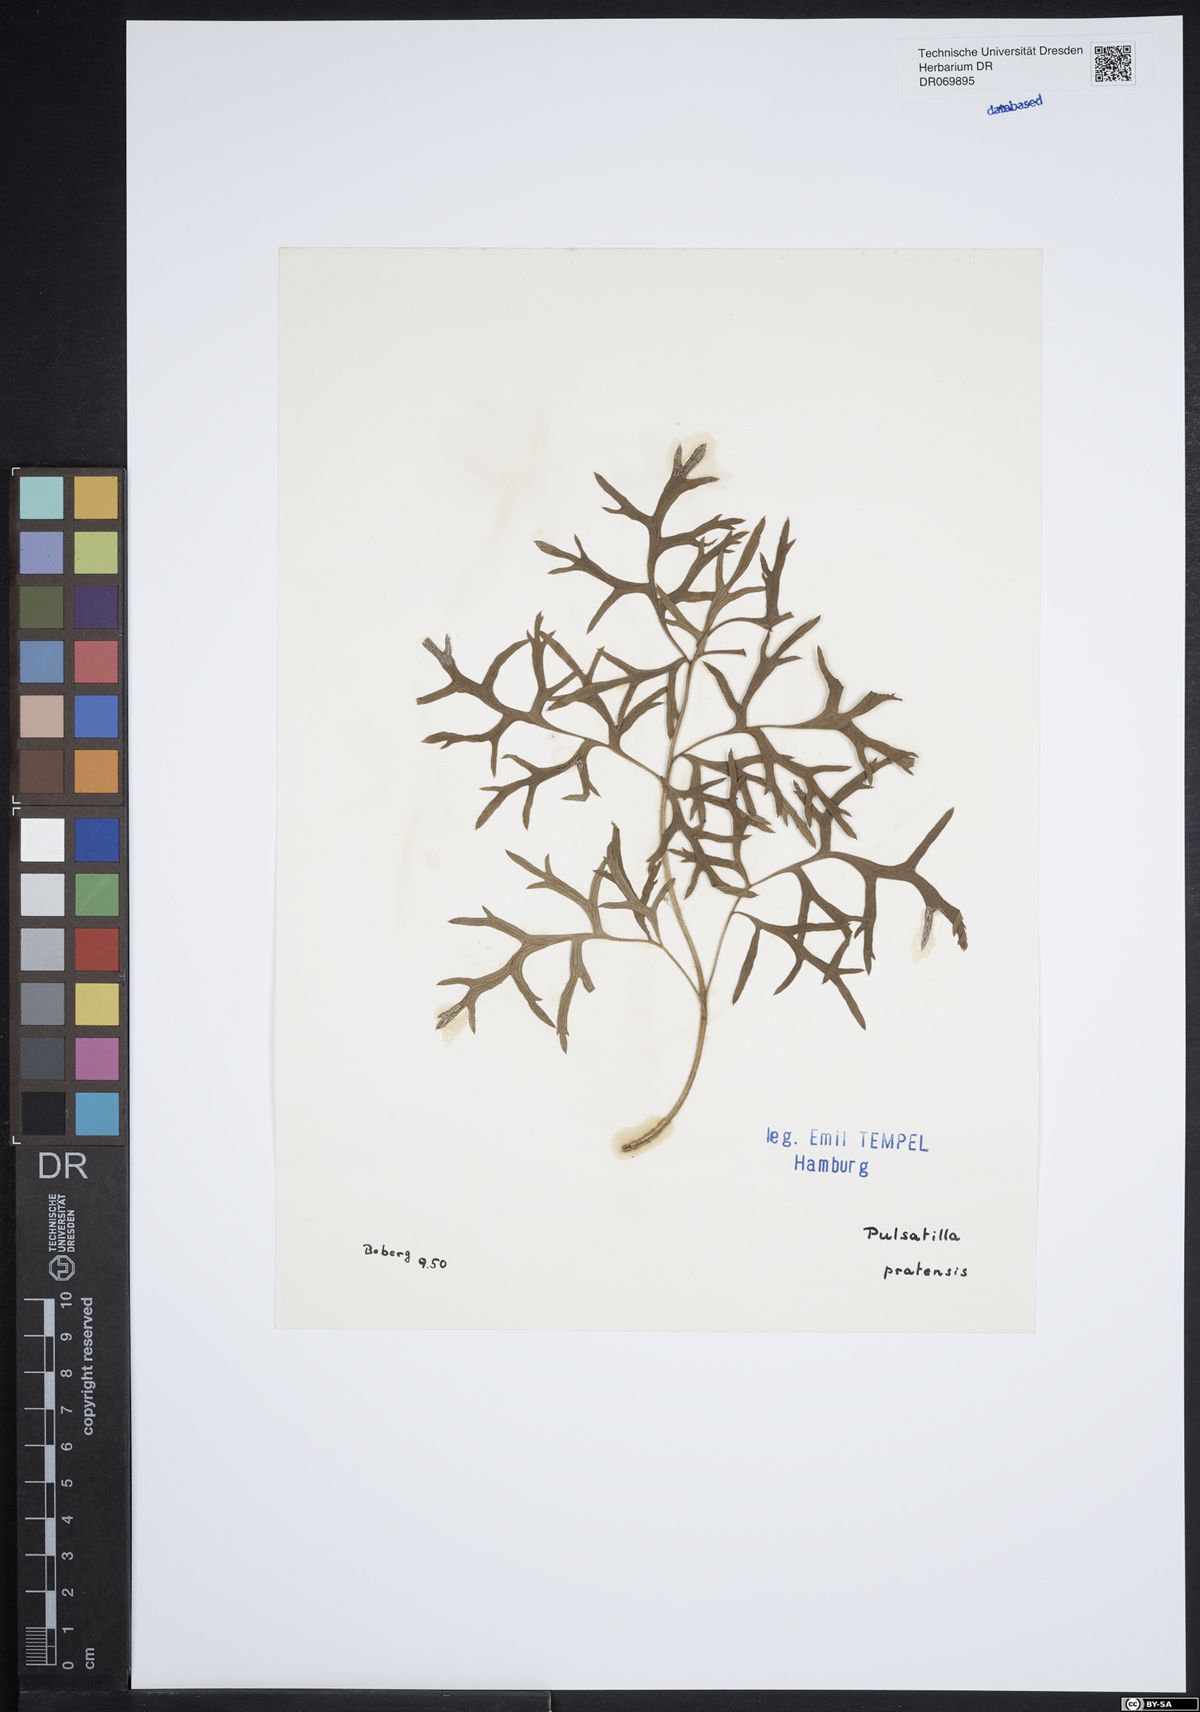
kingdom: Plantae
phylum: Tracheophyta
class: Magnoliopsida
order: Ranunculales
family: Ranunculaceae
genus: Pulsatilla
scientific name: Pulsatilla pratensis
